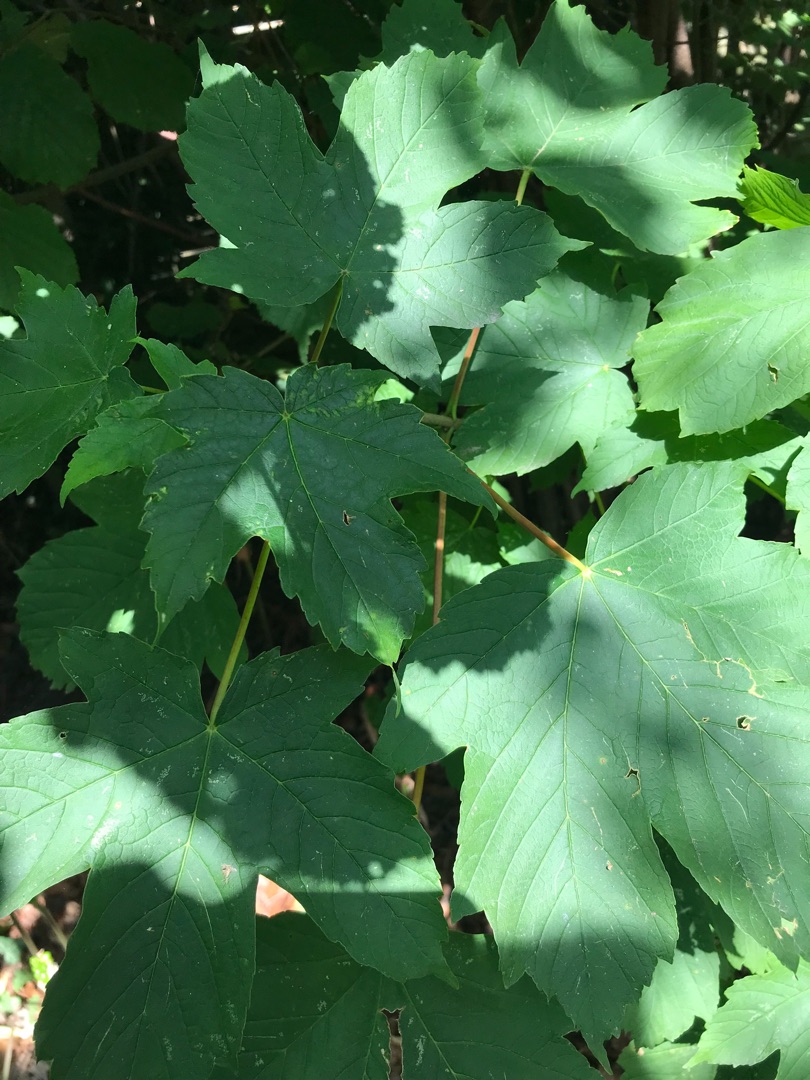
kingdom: Plantae
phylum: Tracheophyta
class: Magnoliopsida
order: Sapindales
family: Sapindaceae
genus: Acer
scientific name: Acer pseudoplatanus
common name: Ahorn
